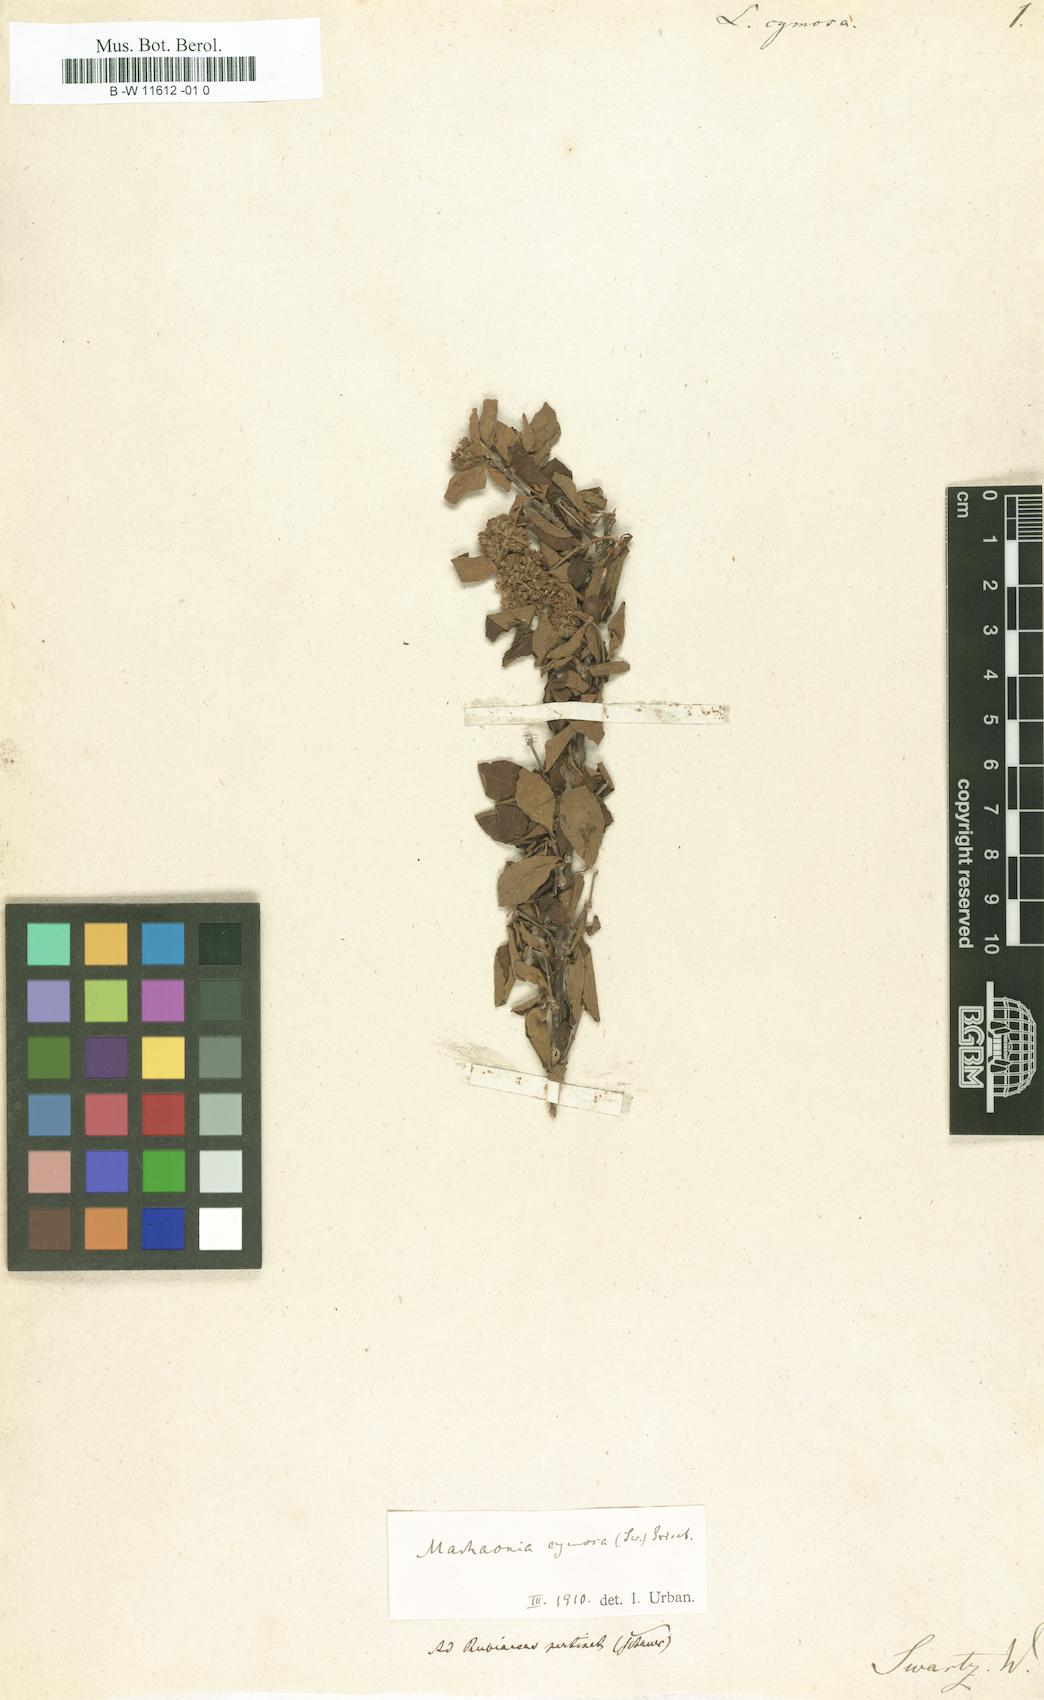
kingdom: Plantae
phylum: Tracheophyta
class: Magnoliopsida
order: Gentianales
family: Rubiaceae
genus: Machaonia
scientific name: Machaonia cymosa
